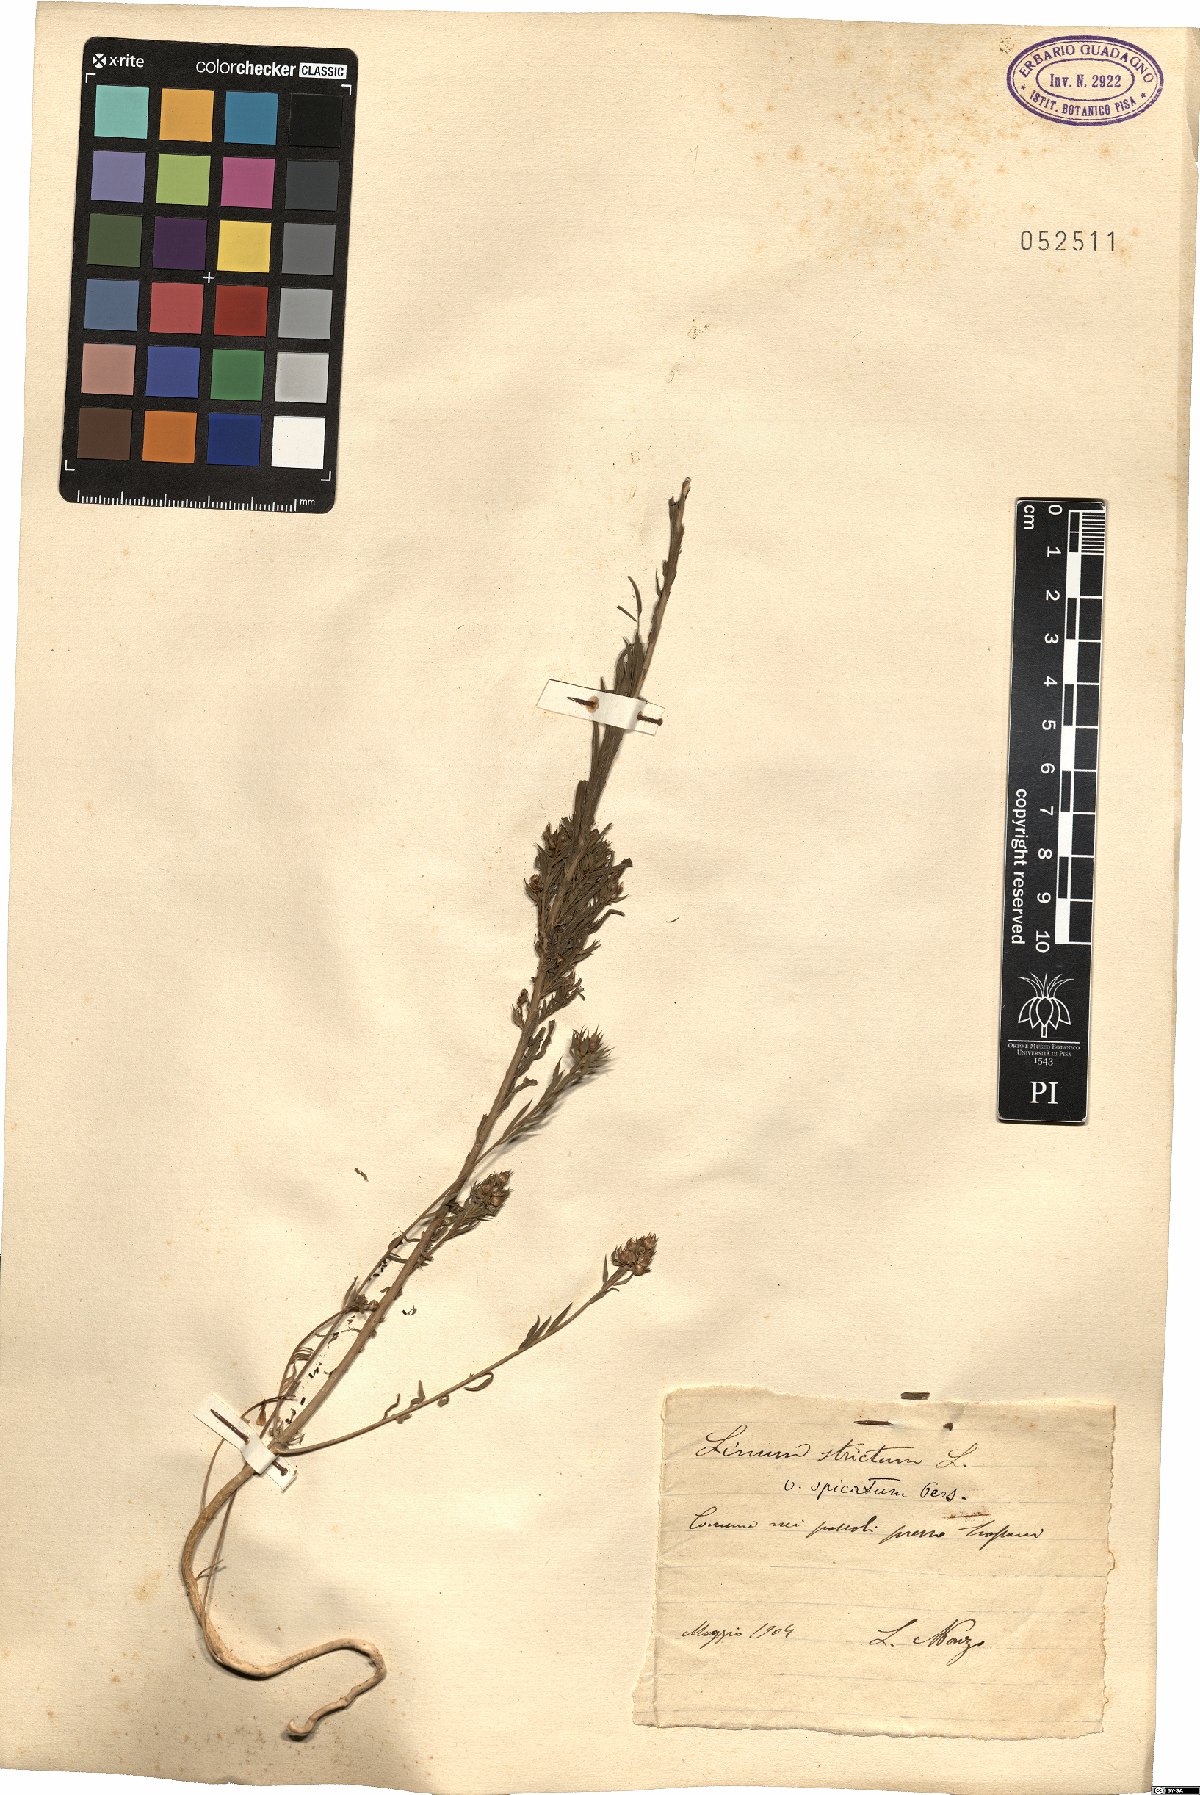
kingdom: Plantae
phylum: Tracheophyta
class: Magnoliopsida
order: Malpighiales
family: Linaceae
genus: Linum
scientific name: Linum strictum
